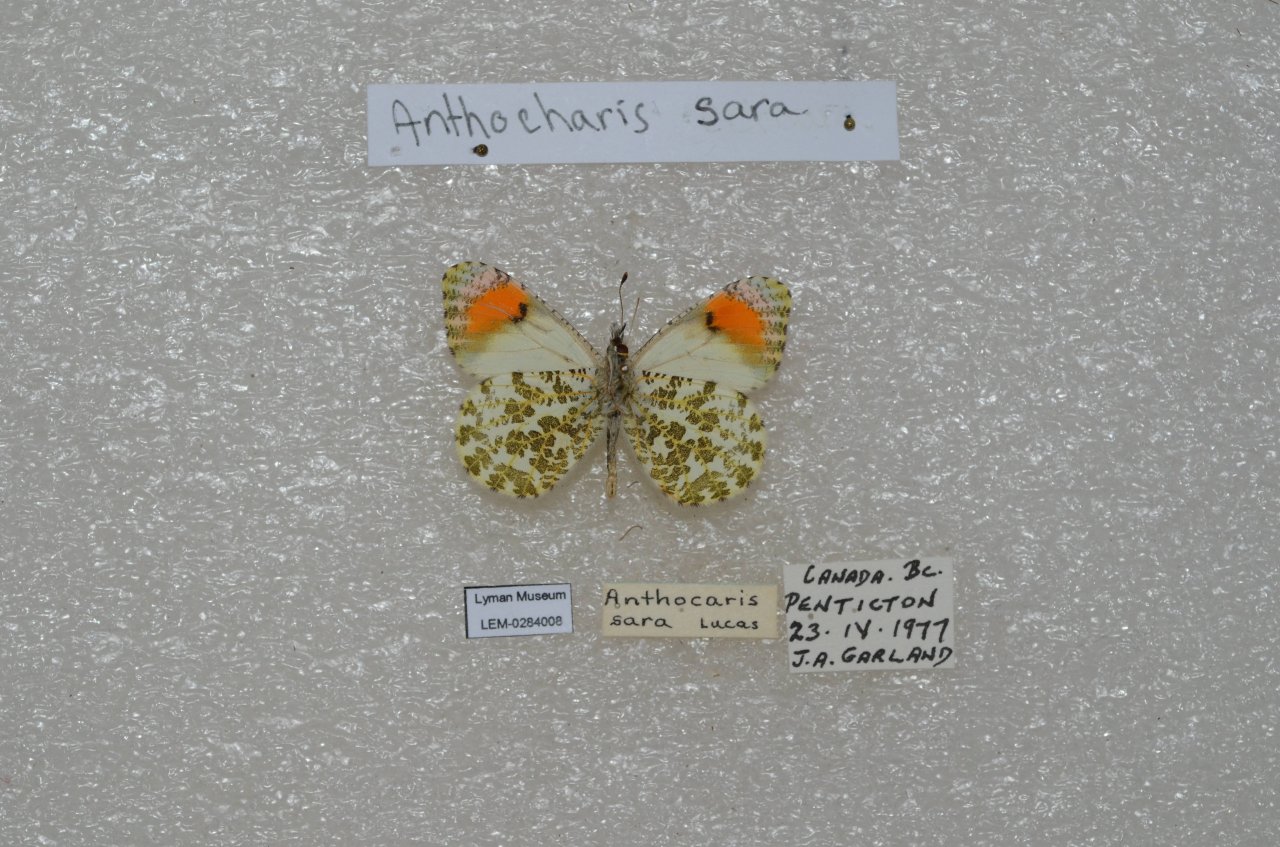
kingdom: Animalia
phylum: Arthropoda
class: Insecta
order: Lepidoptera
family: Pieridae
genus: Anthocharis
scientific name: Anthocharis sara
